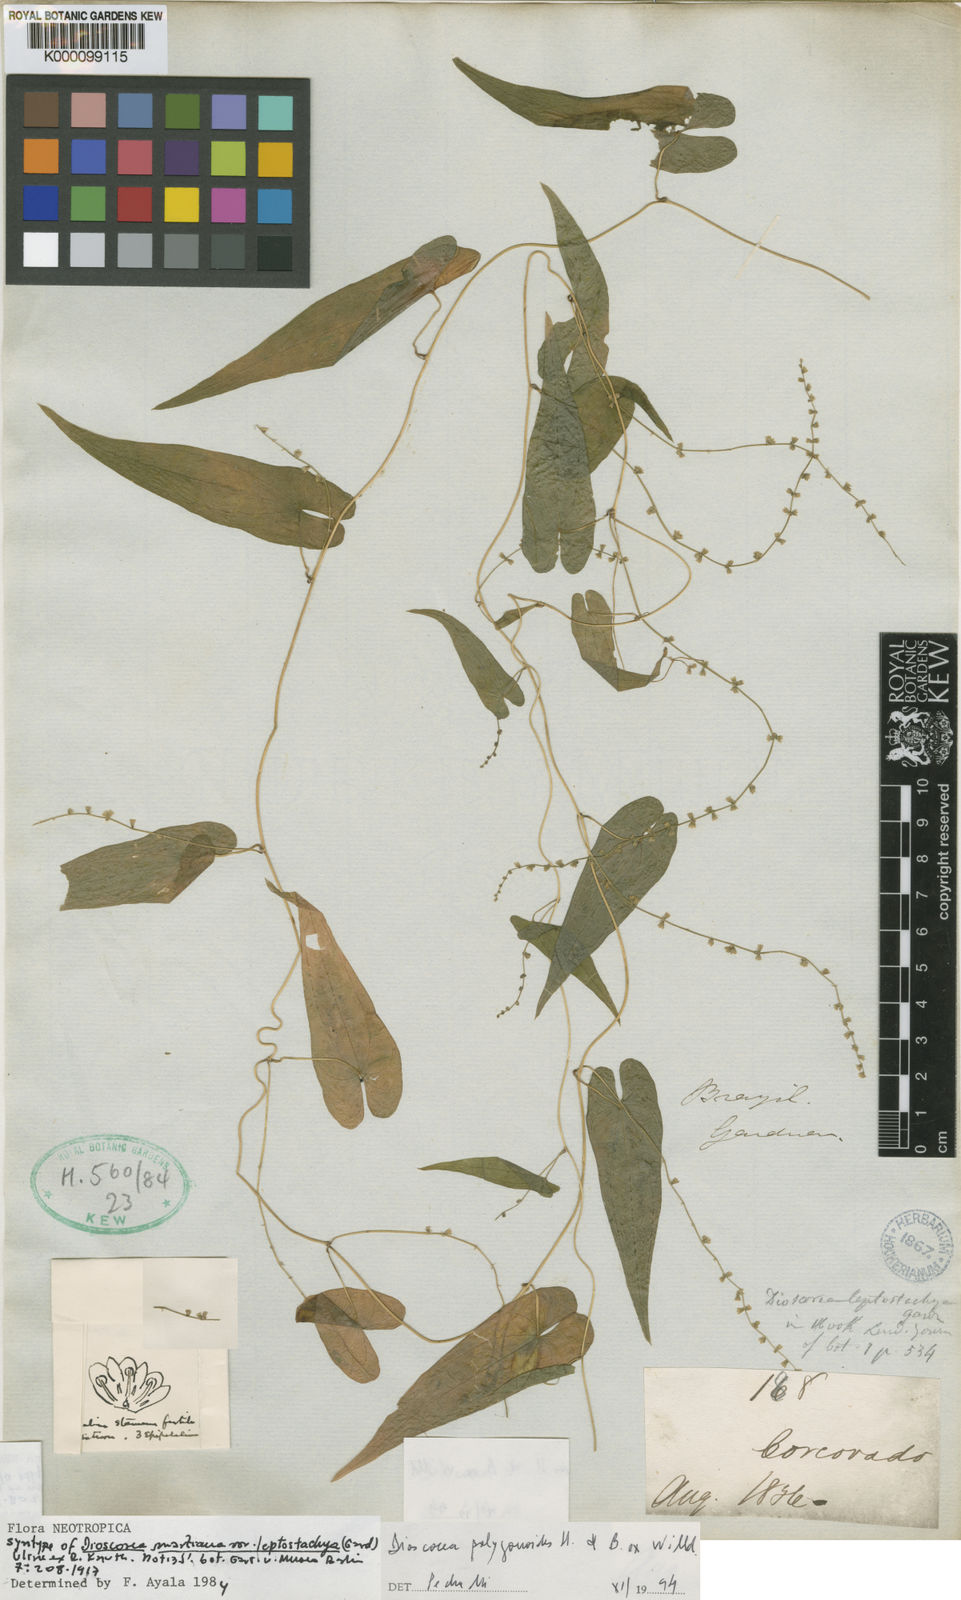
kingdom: Plantae
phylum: Tracheophyta
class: Liliopsida
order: Dioscoreales
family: Dioscoreaceae
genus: Dioscorea
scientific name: Dioscorea martiana
